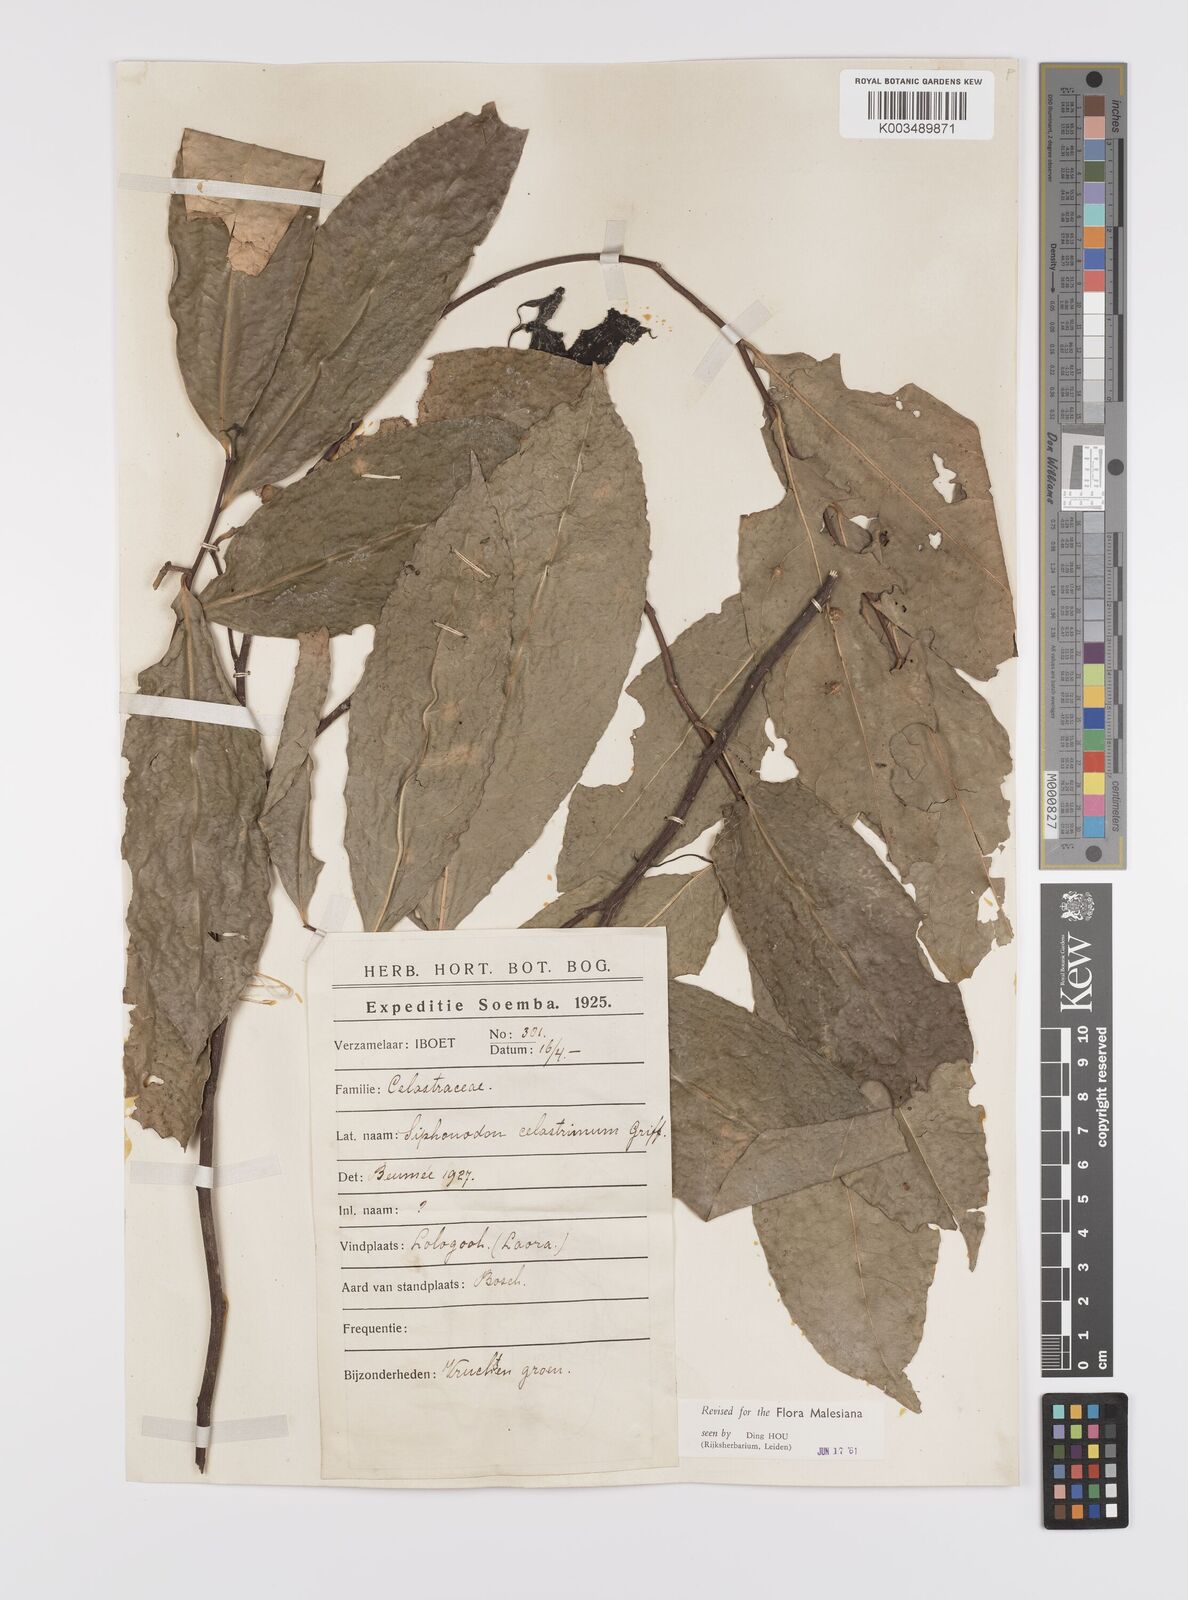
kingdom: Plantae
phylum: Tracheophyta
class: Magnoliopsida
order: Celastrales
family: Celastraceae
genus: Siphonodon
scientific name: Siphonodon celastrineus
